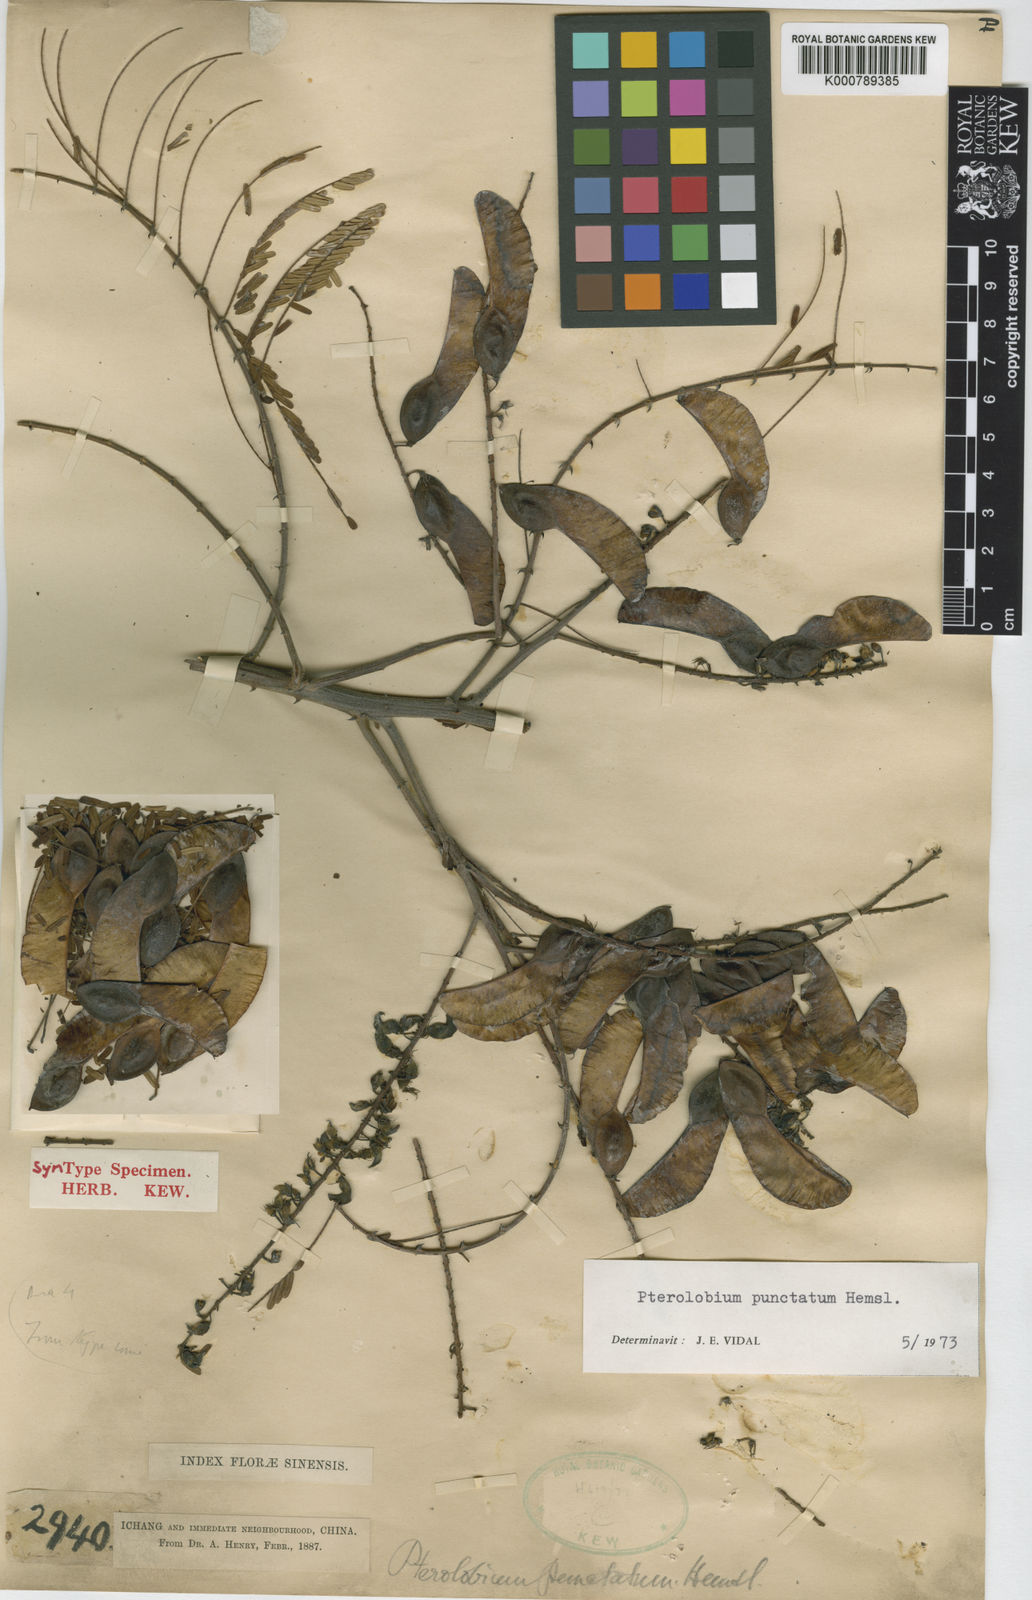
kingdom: Plantae
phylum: Tracheophyta
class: Magnoliopsida
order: Fabales
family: Fabaceae
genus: Pterolobium
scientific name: Pterolobium punctatum
